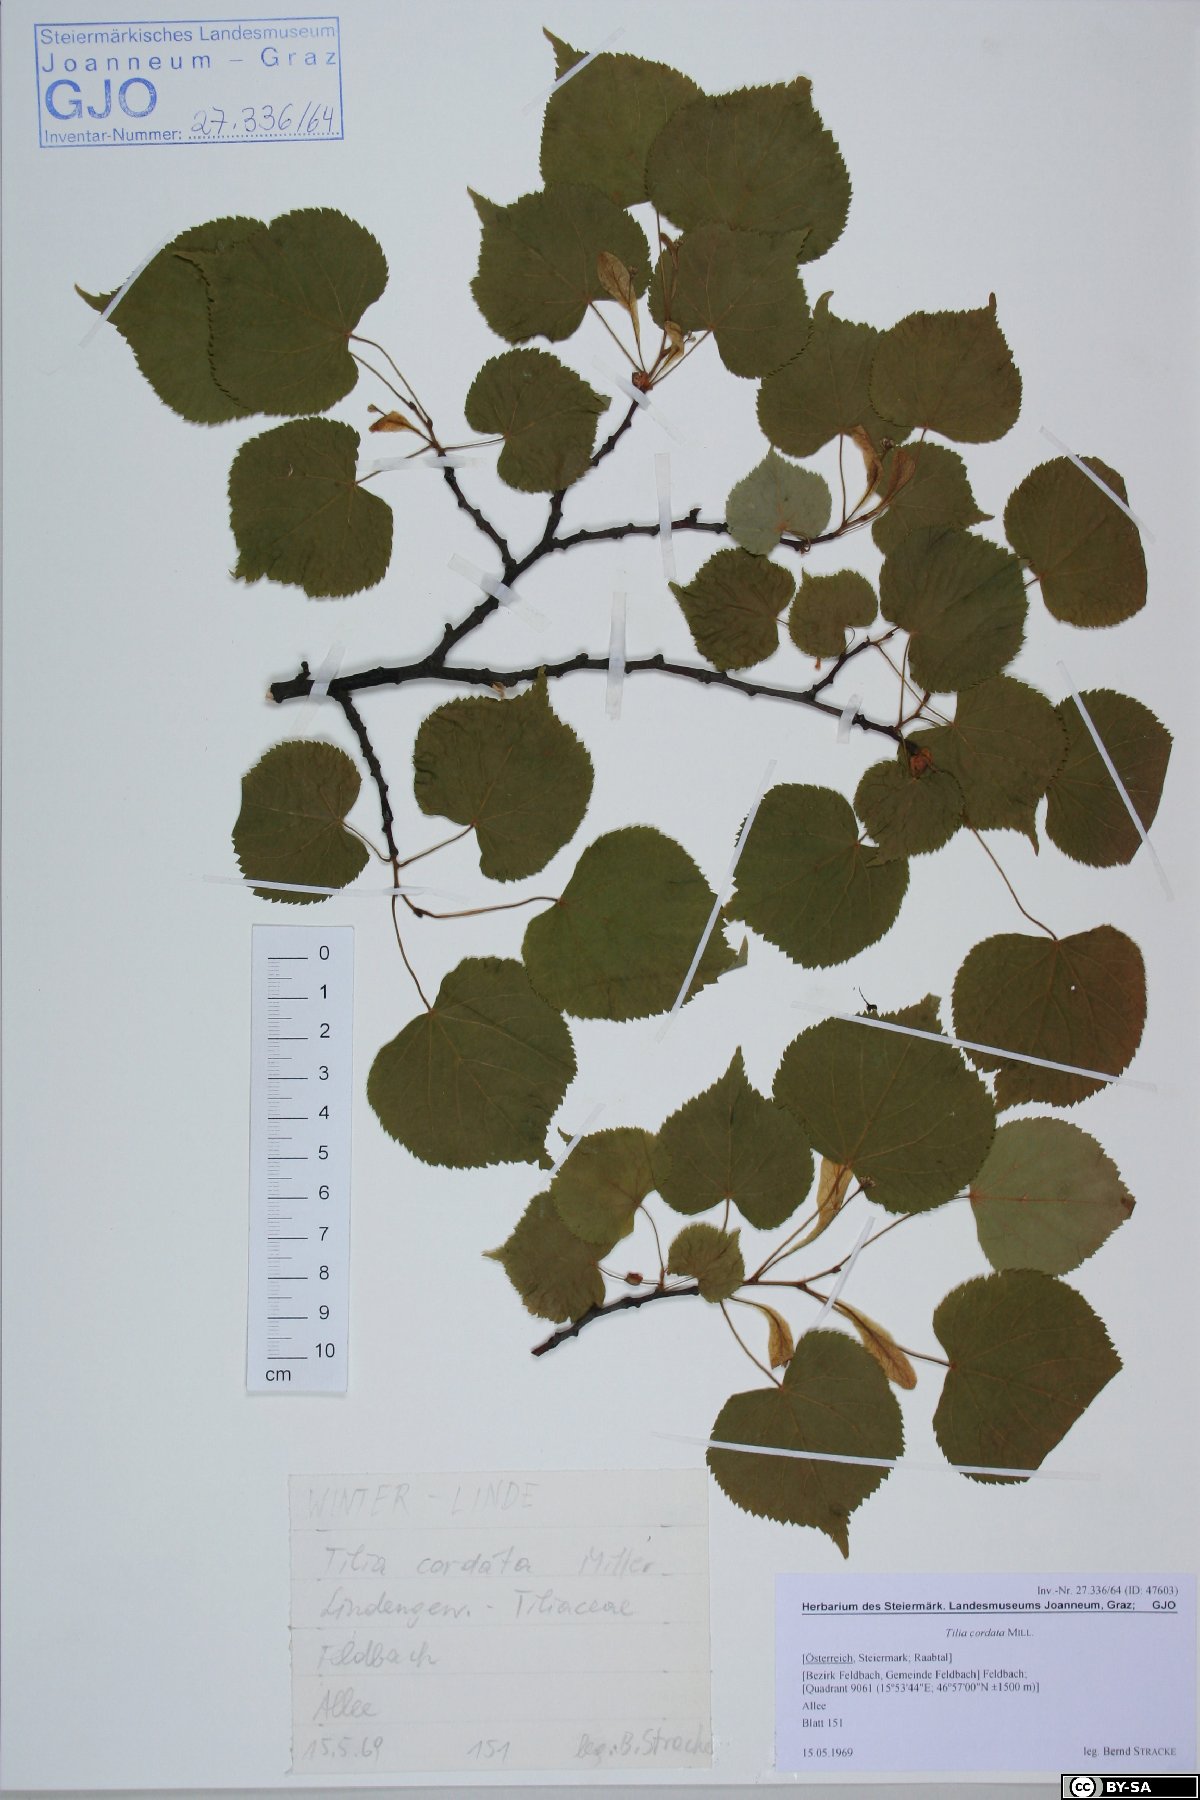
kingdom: Plantae
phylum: Tracheophyta
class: Magnoliopsida
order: Malvales
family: Malvaceae
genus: Tilia
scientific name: Tilia cordata
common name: Small-leaved lime
